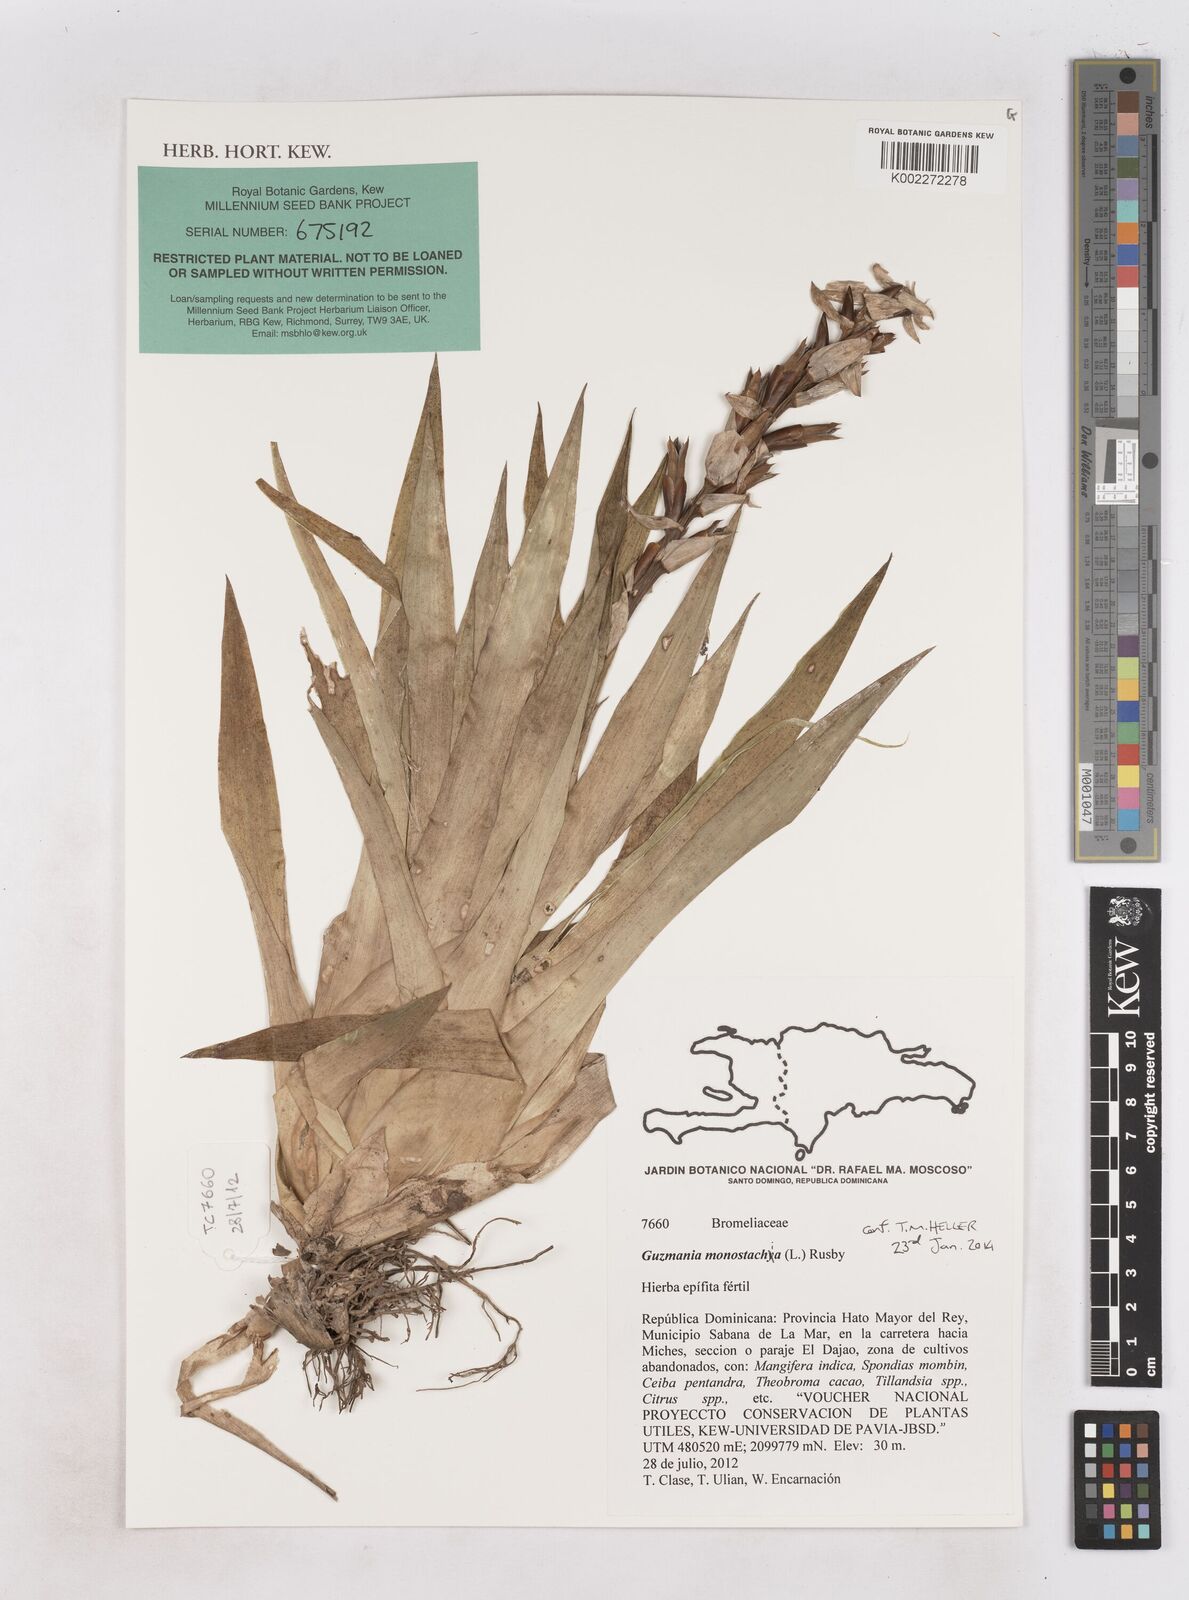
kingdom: Plantae
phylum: Tracheophyta
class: Liliopsida
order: Poales
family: Bromeliaceae
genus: Guzmania
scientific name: Guzmania megastachya
